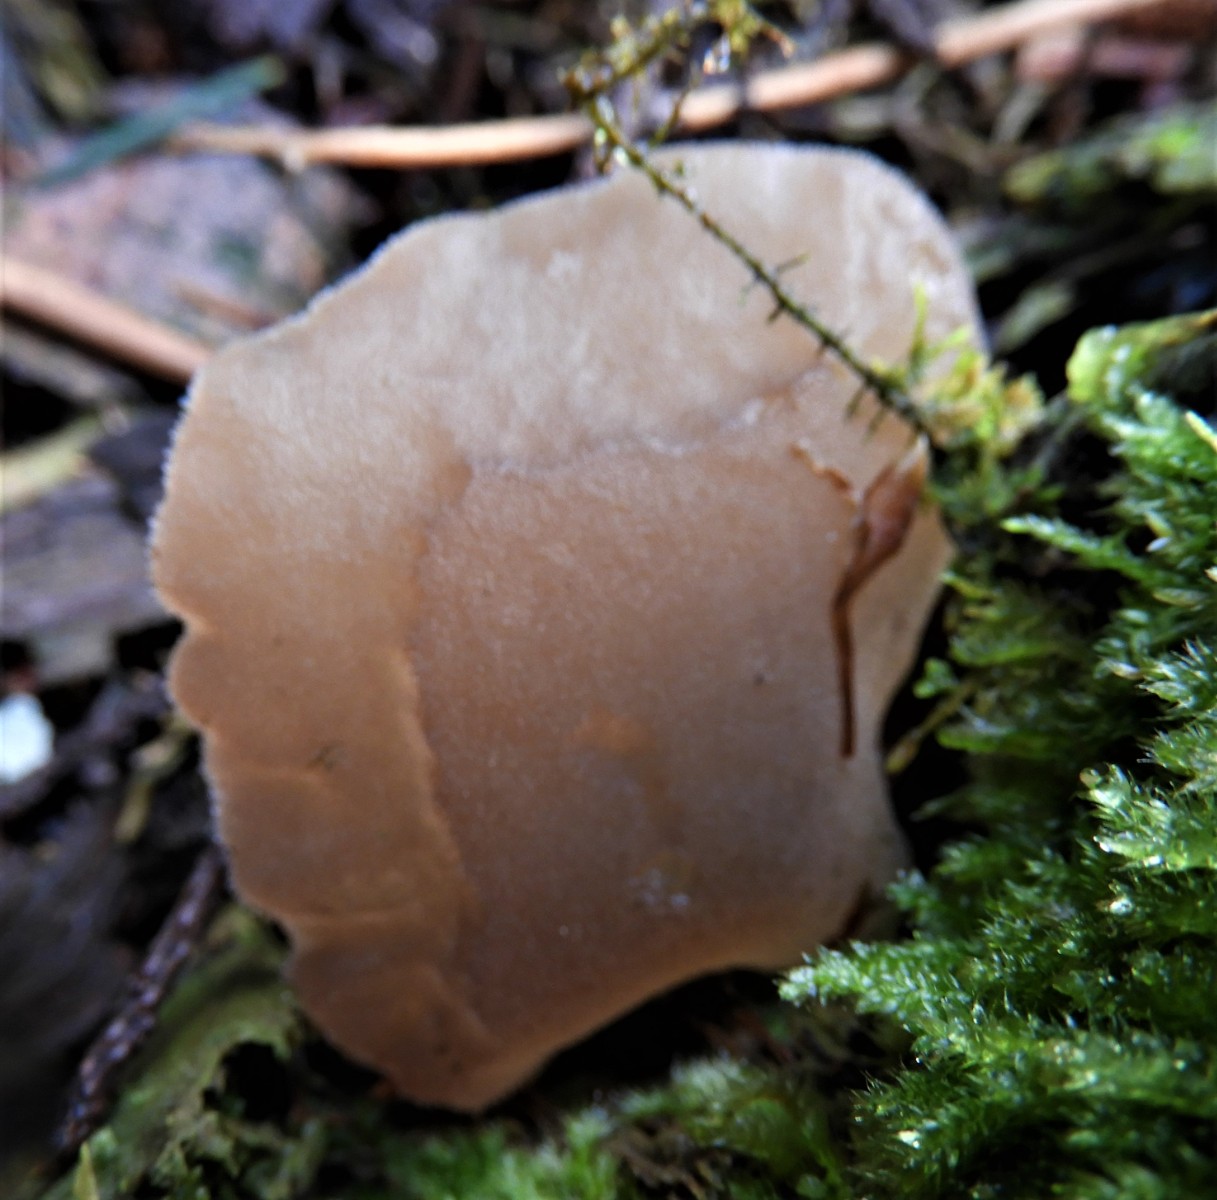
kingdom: Fungi
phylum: Basidiomycota
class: Agaricomycetes
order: Auriculariales
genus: Pseudohydnum
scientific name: Pseudohydnum gelatinosum
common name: bævretand
